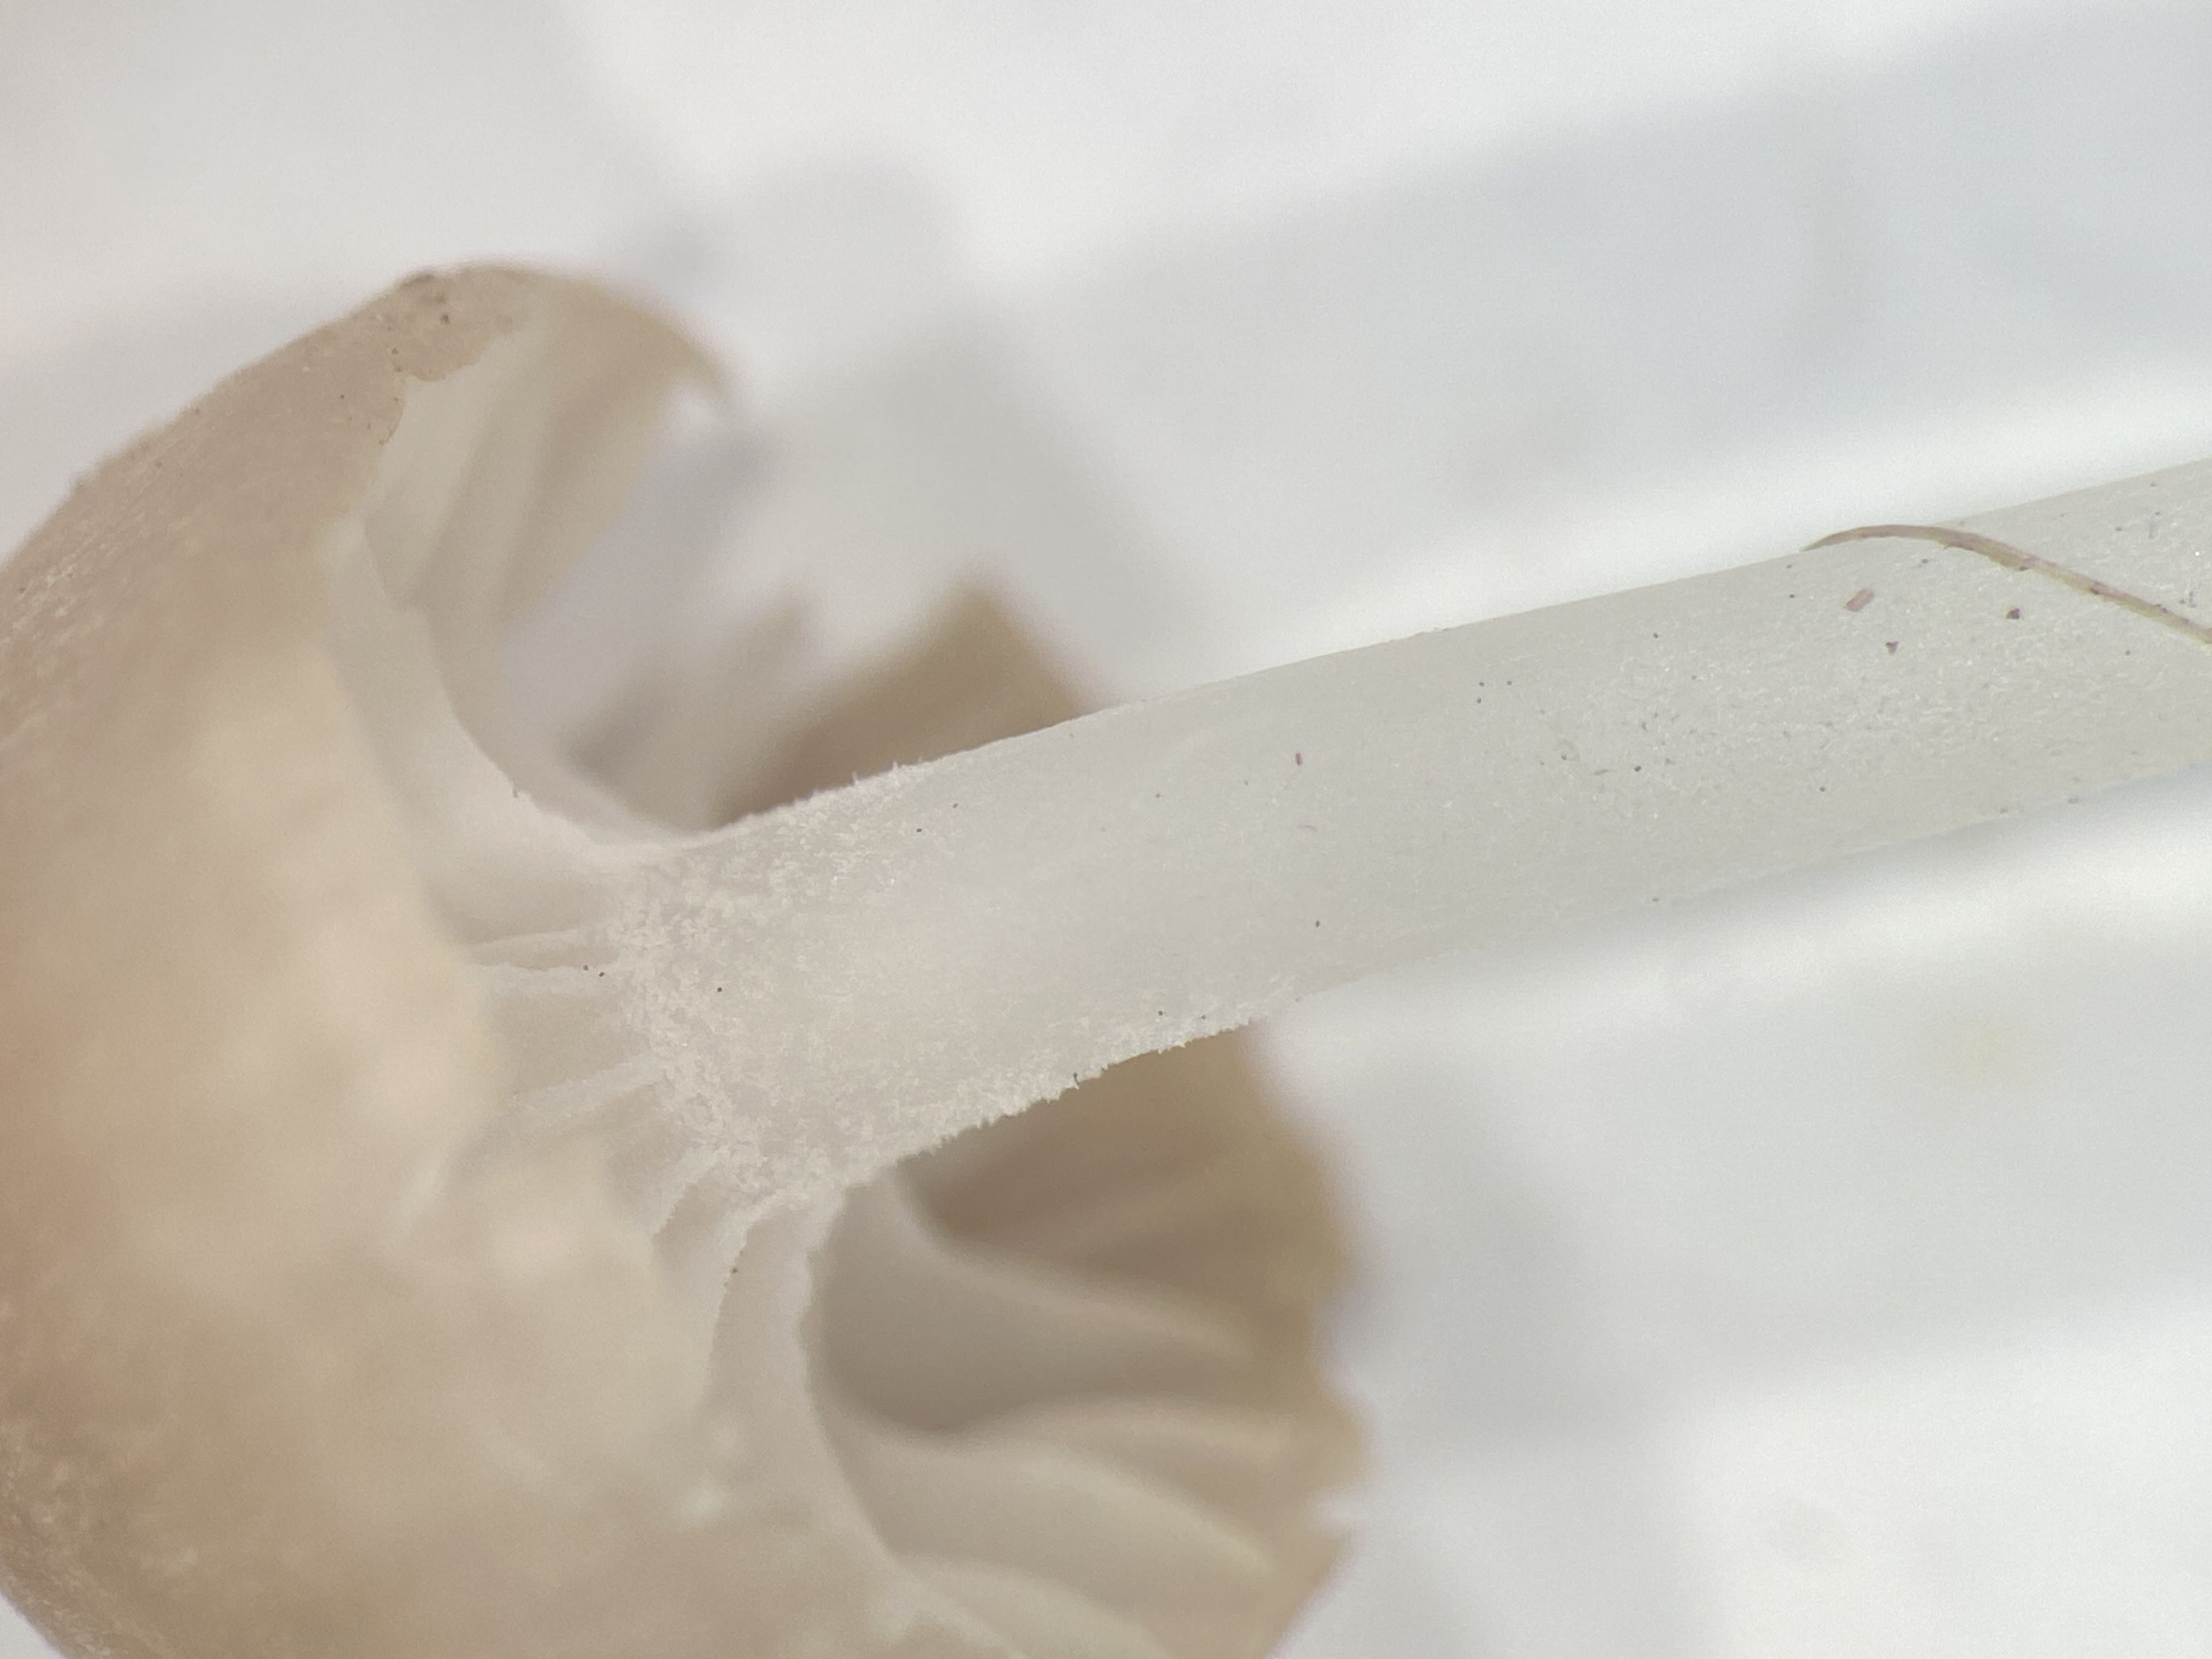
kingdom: Fungi
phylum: Basidiomycota
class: Agaricomycetes
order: Agaricales
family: Mycenaceae
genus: Hemimycena
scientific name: Hemimycena mairei
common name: voks-huesvamp
